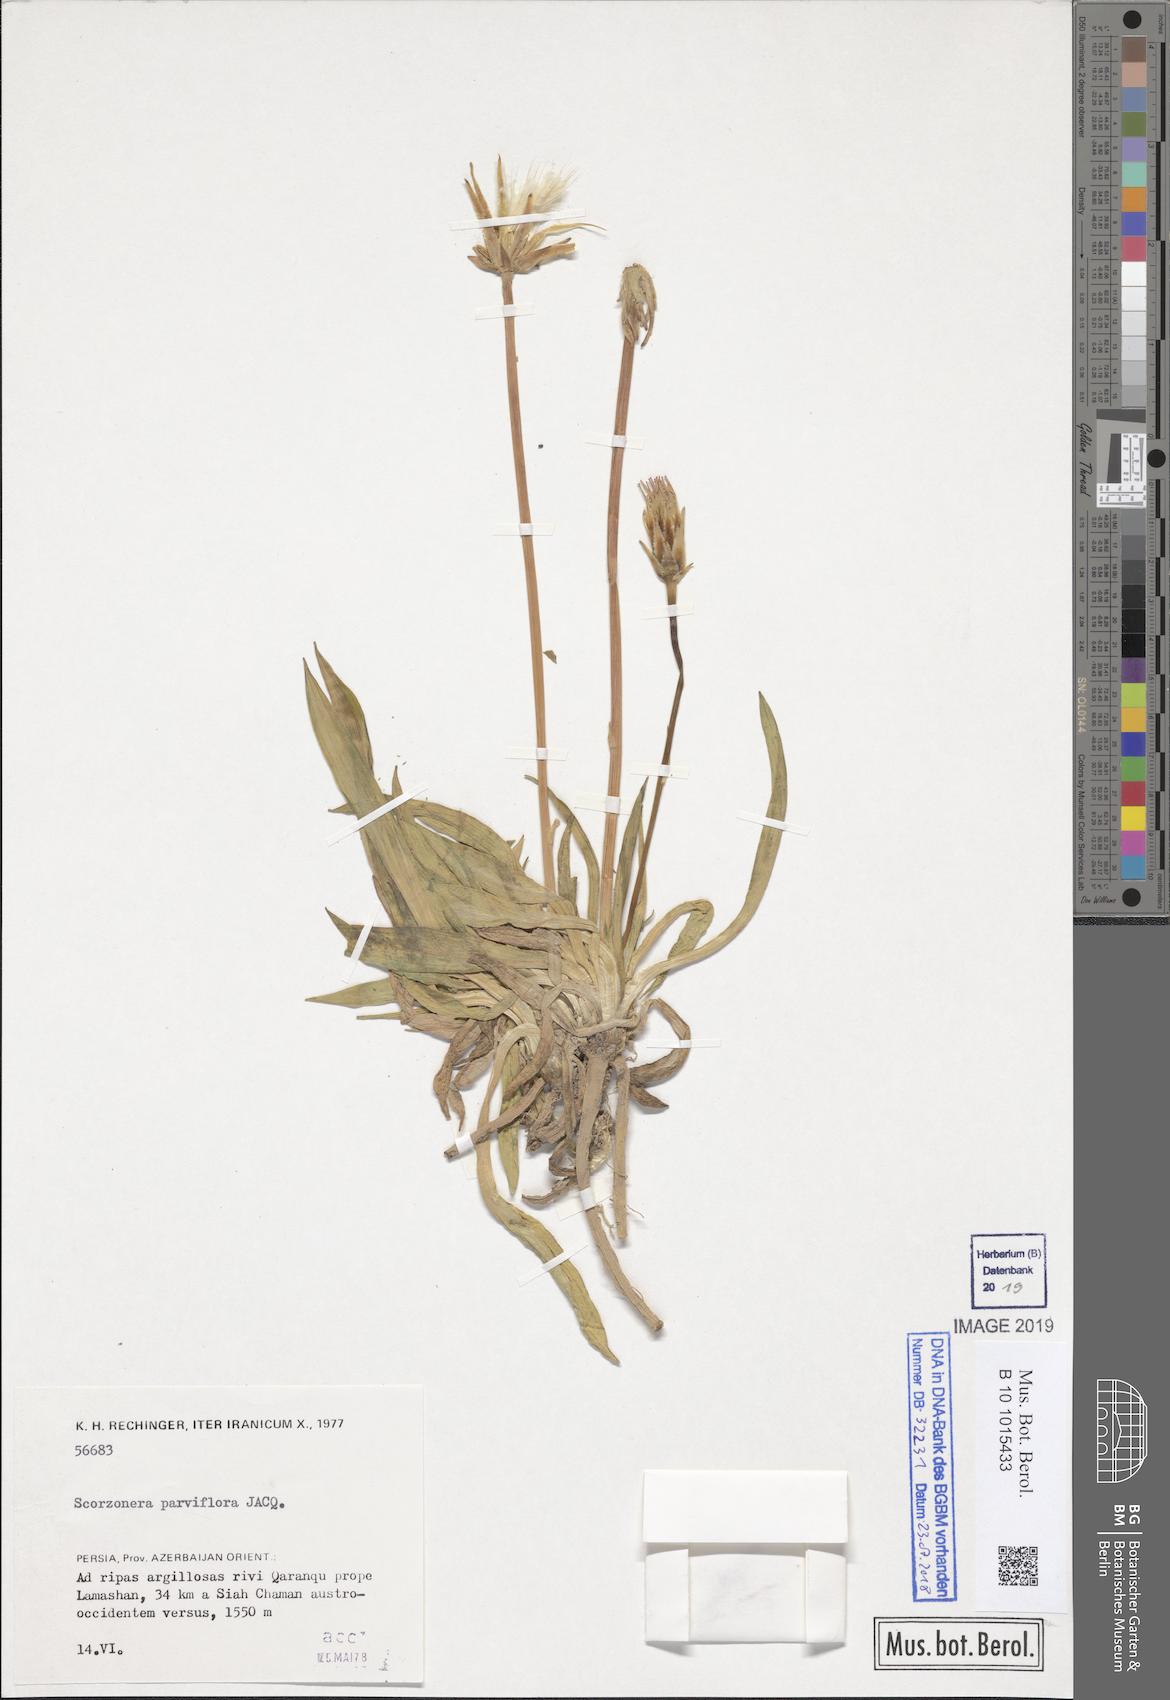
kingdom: Plantae
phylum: Tracheophyta
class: Magnoliopsida
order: Asterales
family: Asteraceae
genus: Scorzonera
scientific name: Scorzonera parviflora
